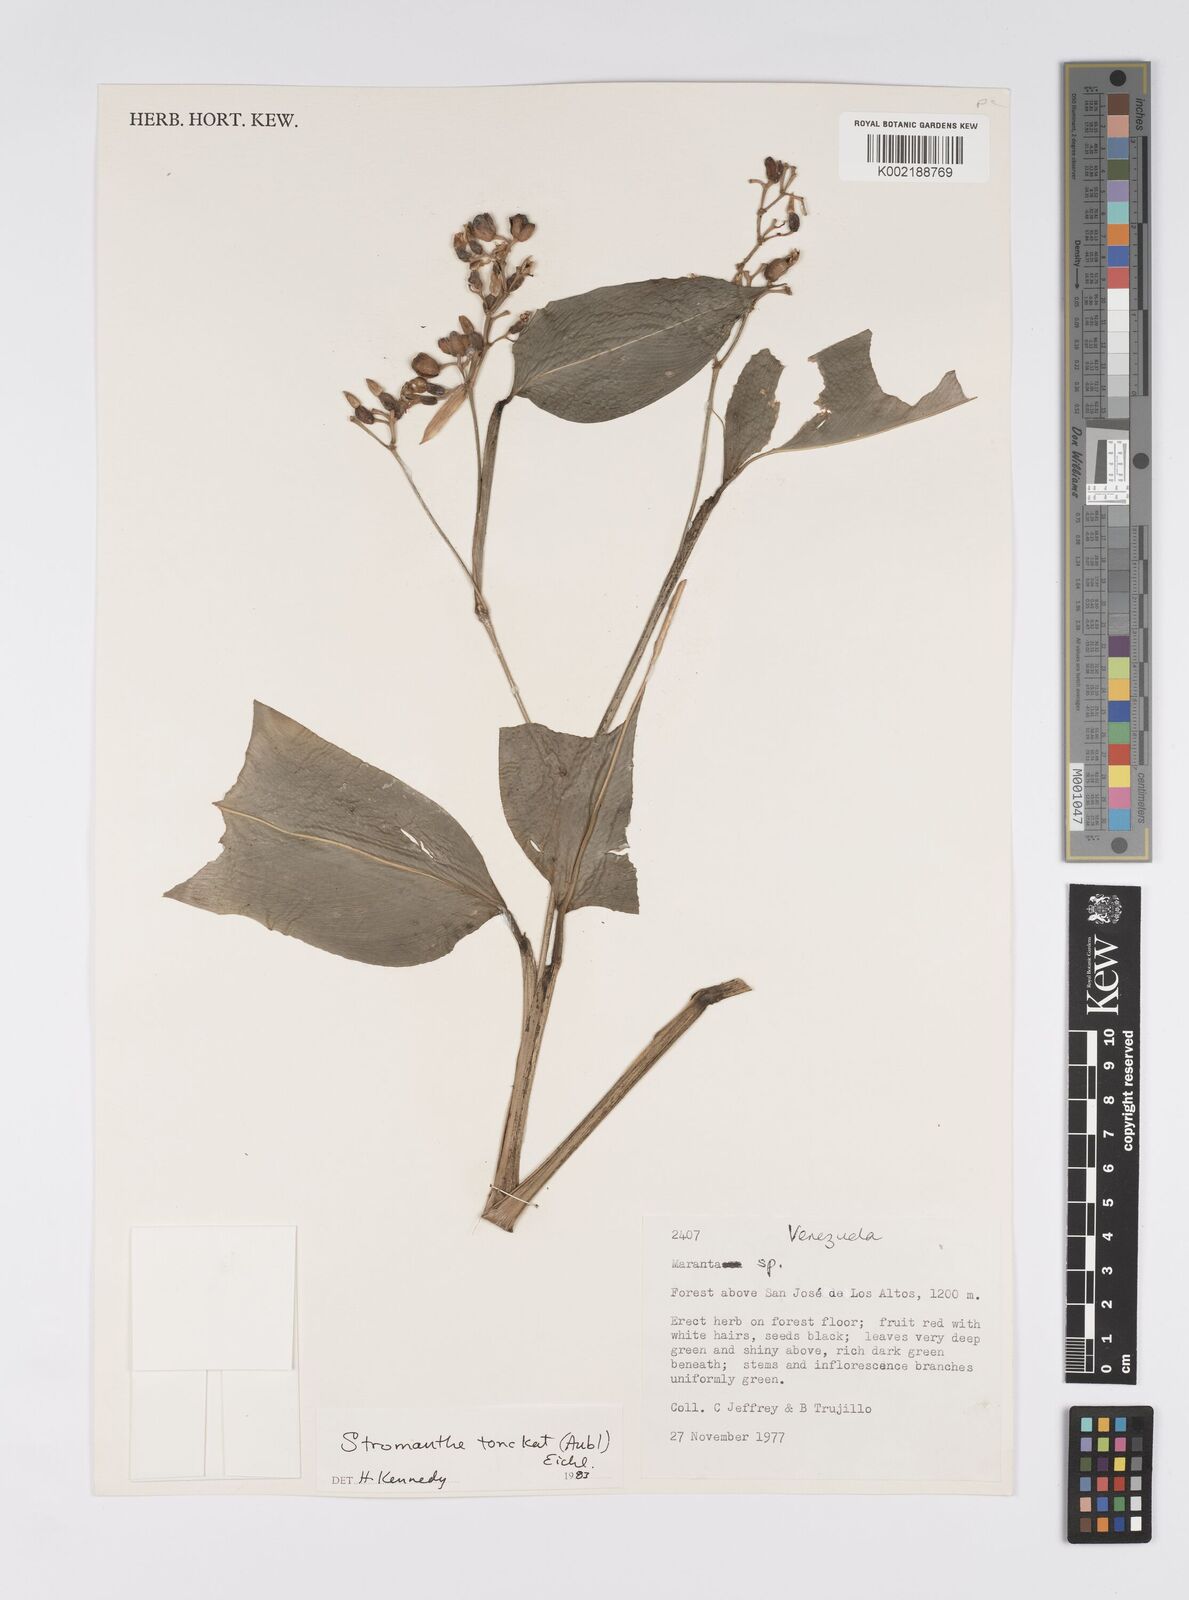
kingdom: Plantae
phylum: Tracheophyta
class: Liliopsida
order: Zingiberales
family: Marantaceae
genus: Stromanthe
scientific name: Stromanthe tonckat
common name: Stromanthe
